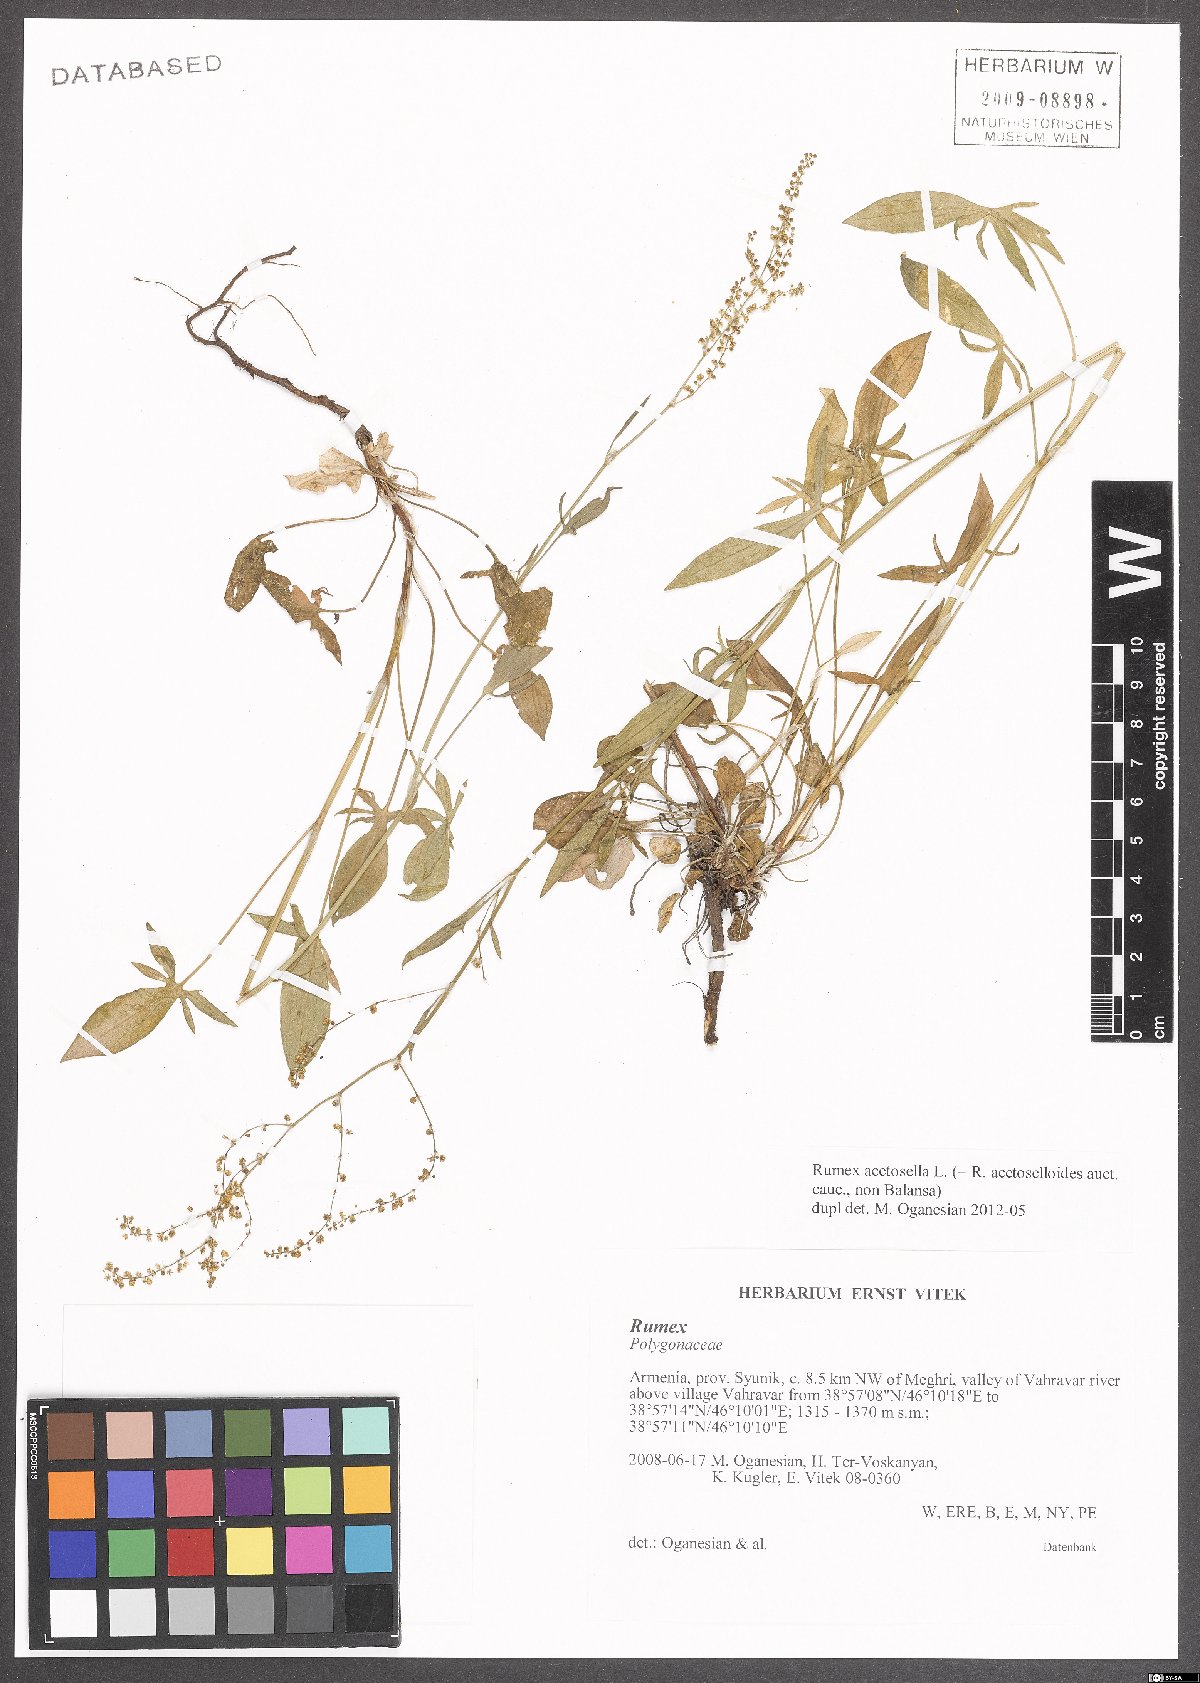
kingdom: Plantae
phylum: Tracheophyta
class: Magnoliopsida
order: Caryophyllales
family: Polygonaceae
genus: Rumex
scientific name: Rumex acetosella
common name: Common sheep sorrel
